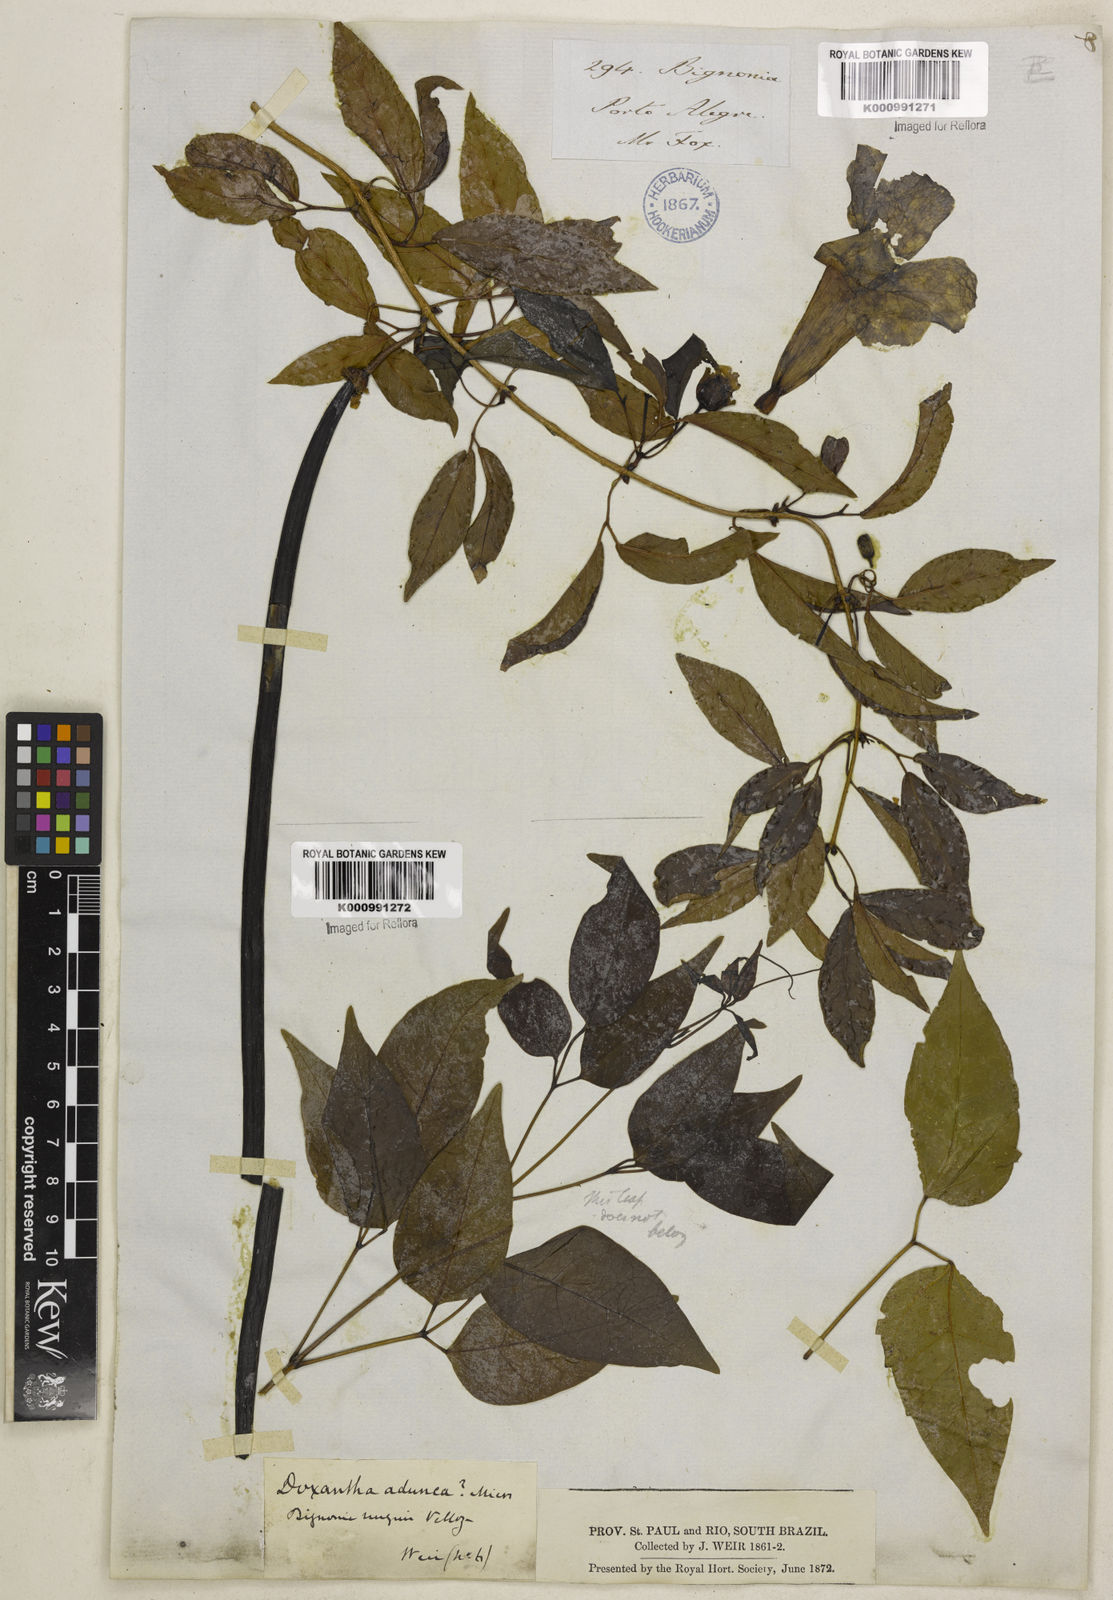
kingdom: Plantae
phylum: Tracheophyta
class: Magnoliopsida
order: Lamiales
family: Bignoniaceae
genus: Dolichandra
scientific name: Dolichandra unguis-cati
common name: Catclaw vine
